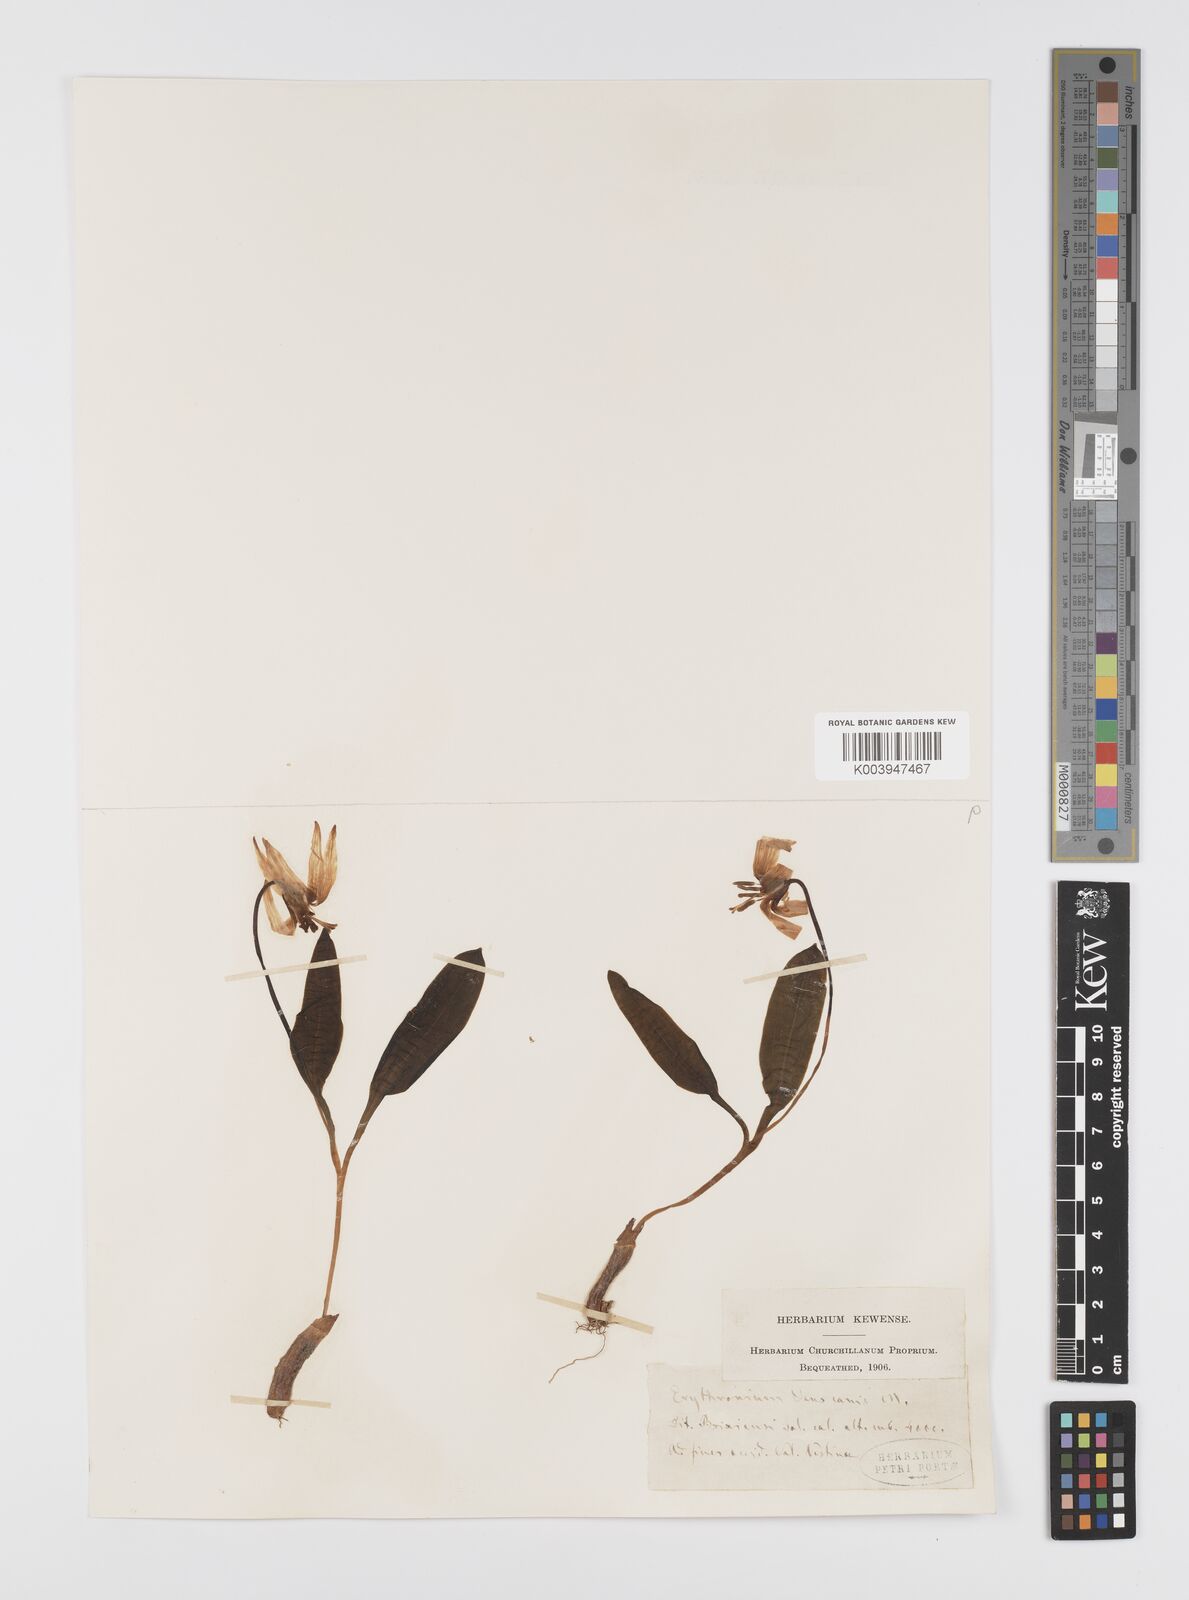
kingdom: Plantae
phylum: Tracheophyta
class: Liliopsida
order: Liliales
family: Liliaceae
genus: Erythronium
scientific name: Erythronium dens-canis
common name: Dog's-tooth-violet
